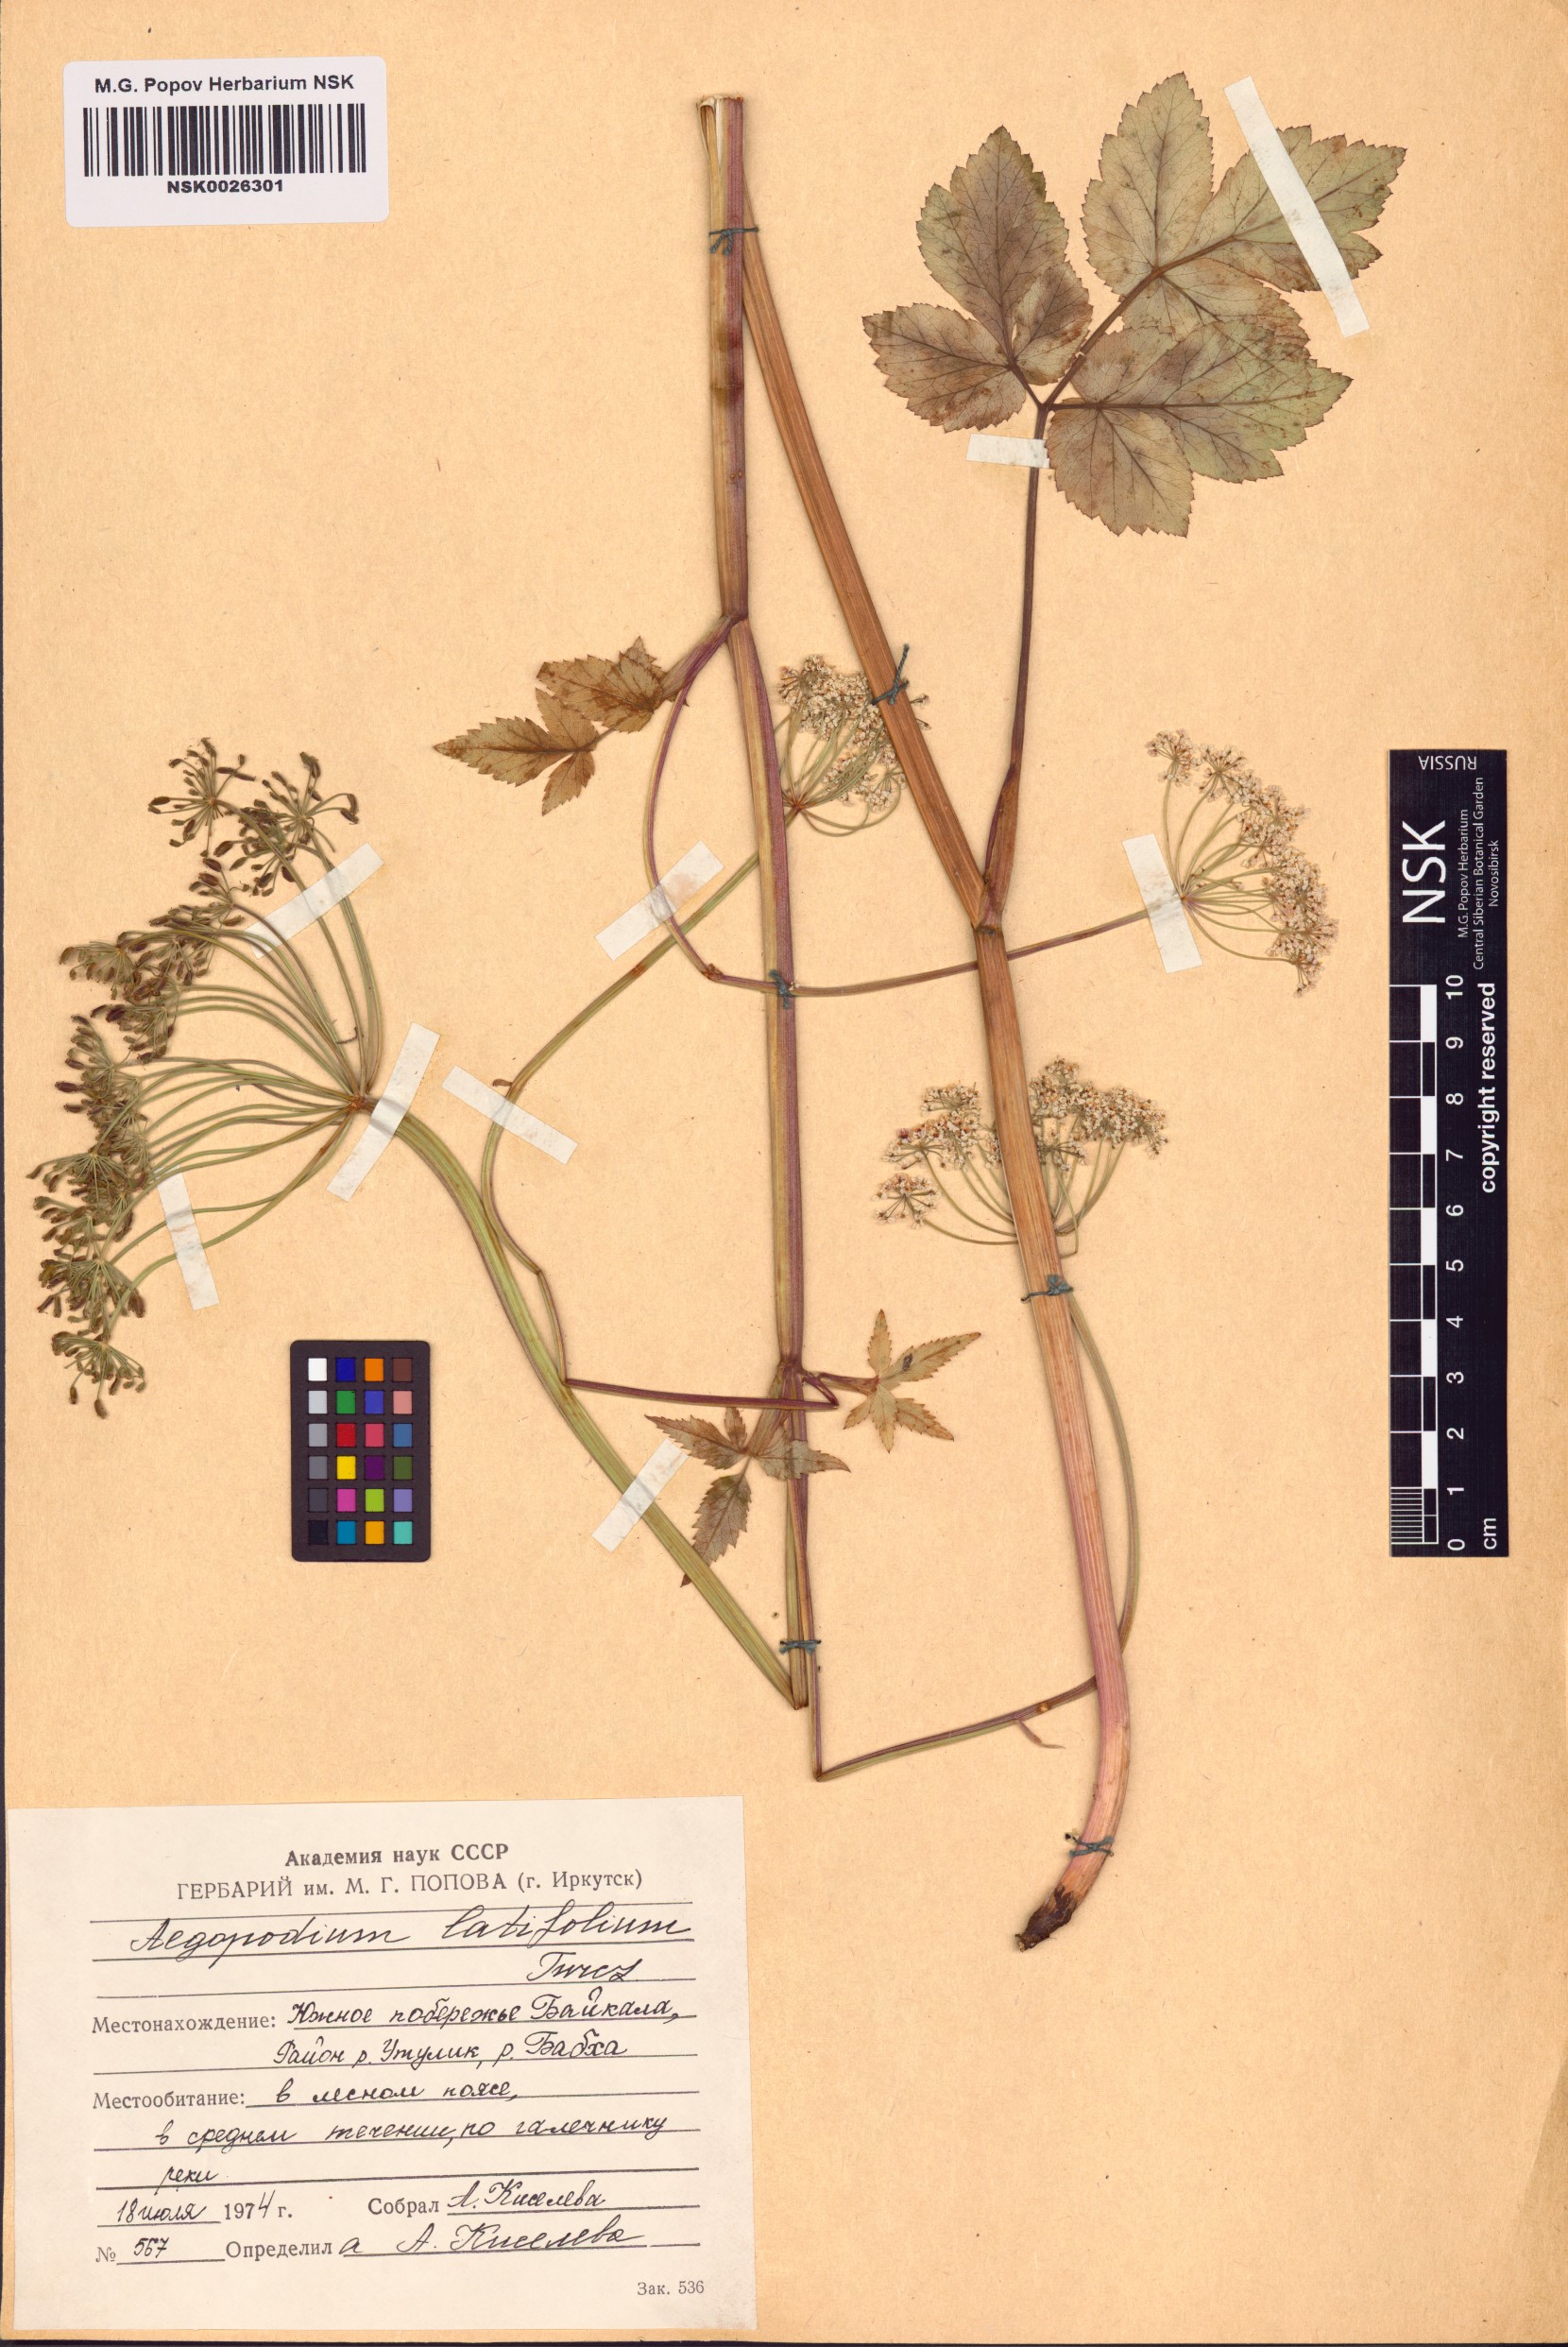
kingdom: Plantae
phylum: Tracheophyta
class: Magnoliopsida
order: Apiales
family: Apiaceae
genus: Aegopodium
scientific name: Aegopodium latifolium
